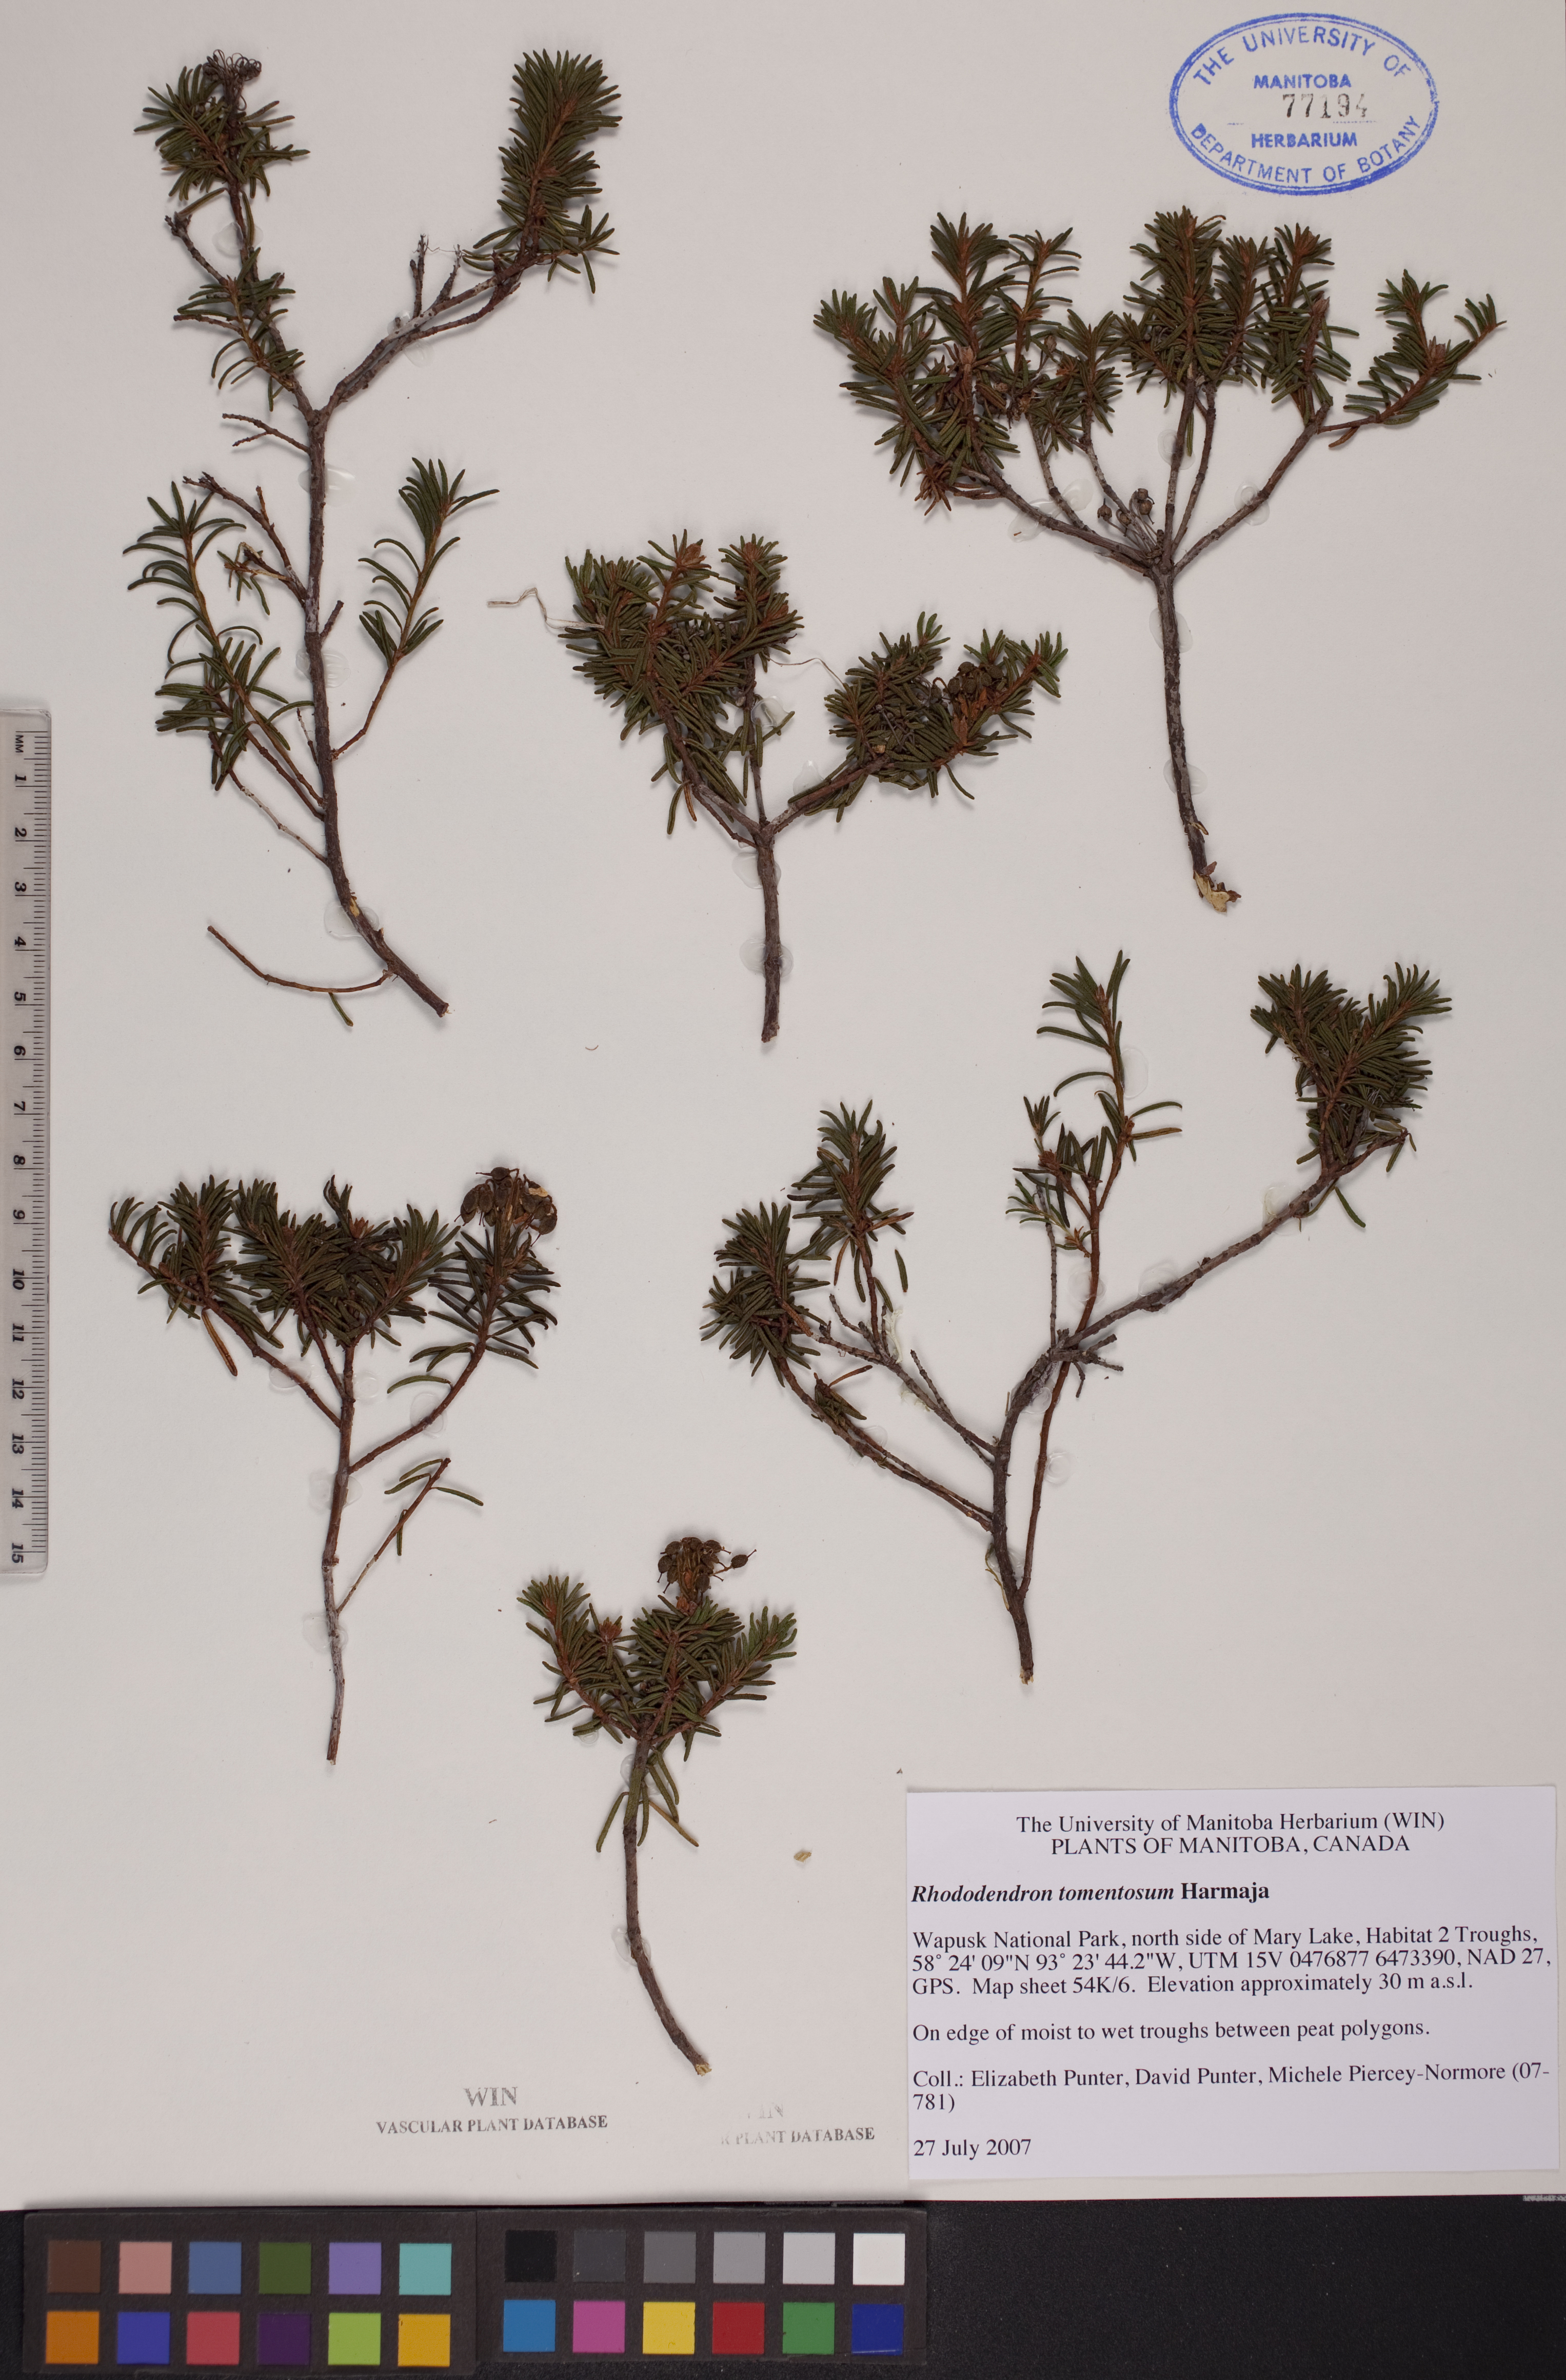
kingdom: Plantae
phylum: Tracheophyta
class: Magnoliopsida
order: Ericales
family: Ericaceae
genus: Rhododendron
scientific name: Rhododendron tomentosum
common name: Marsh labrador tea
